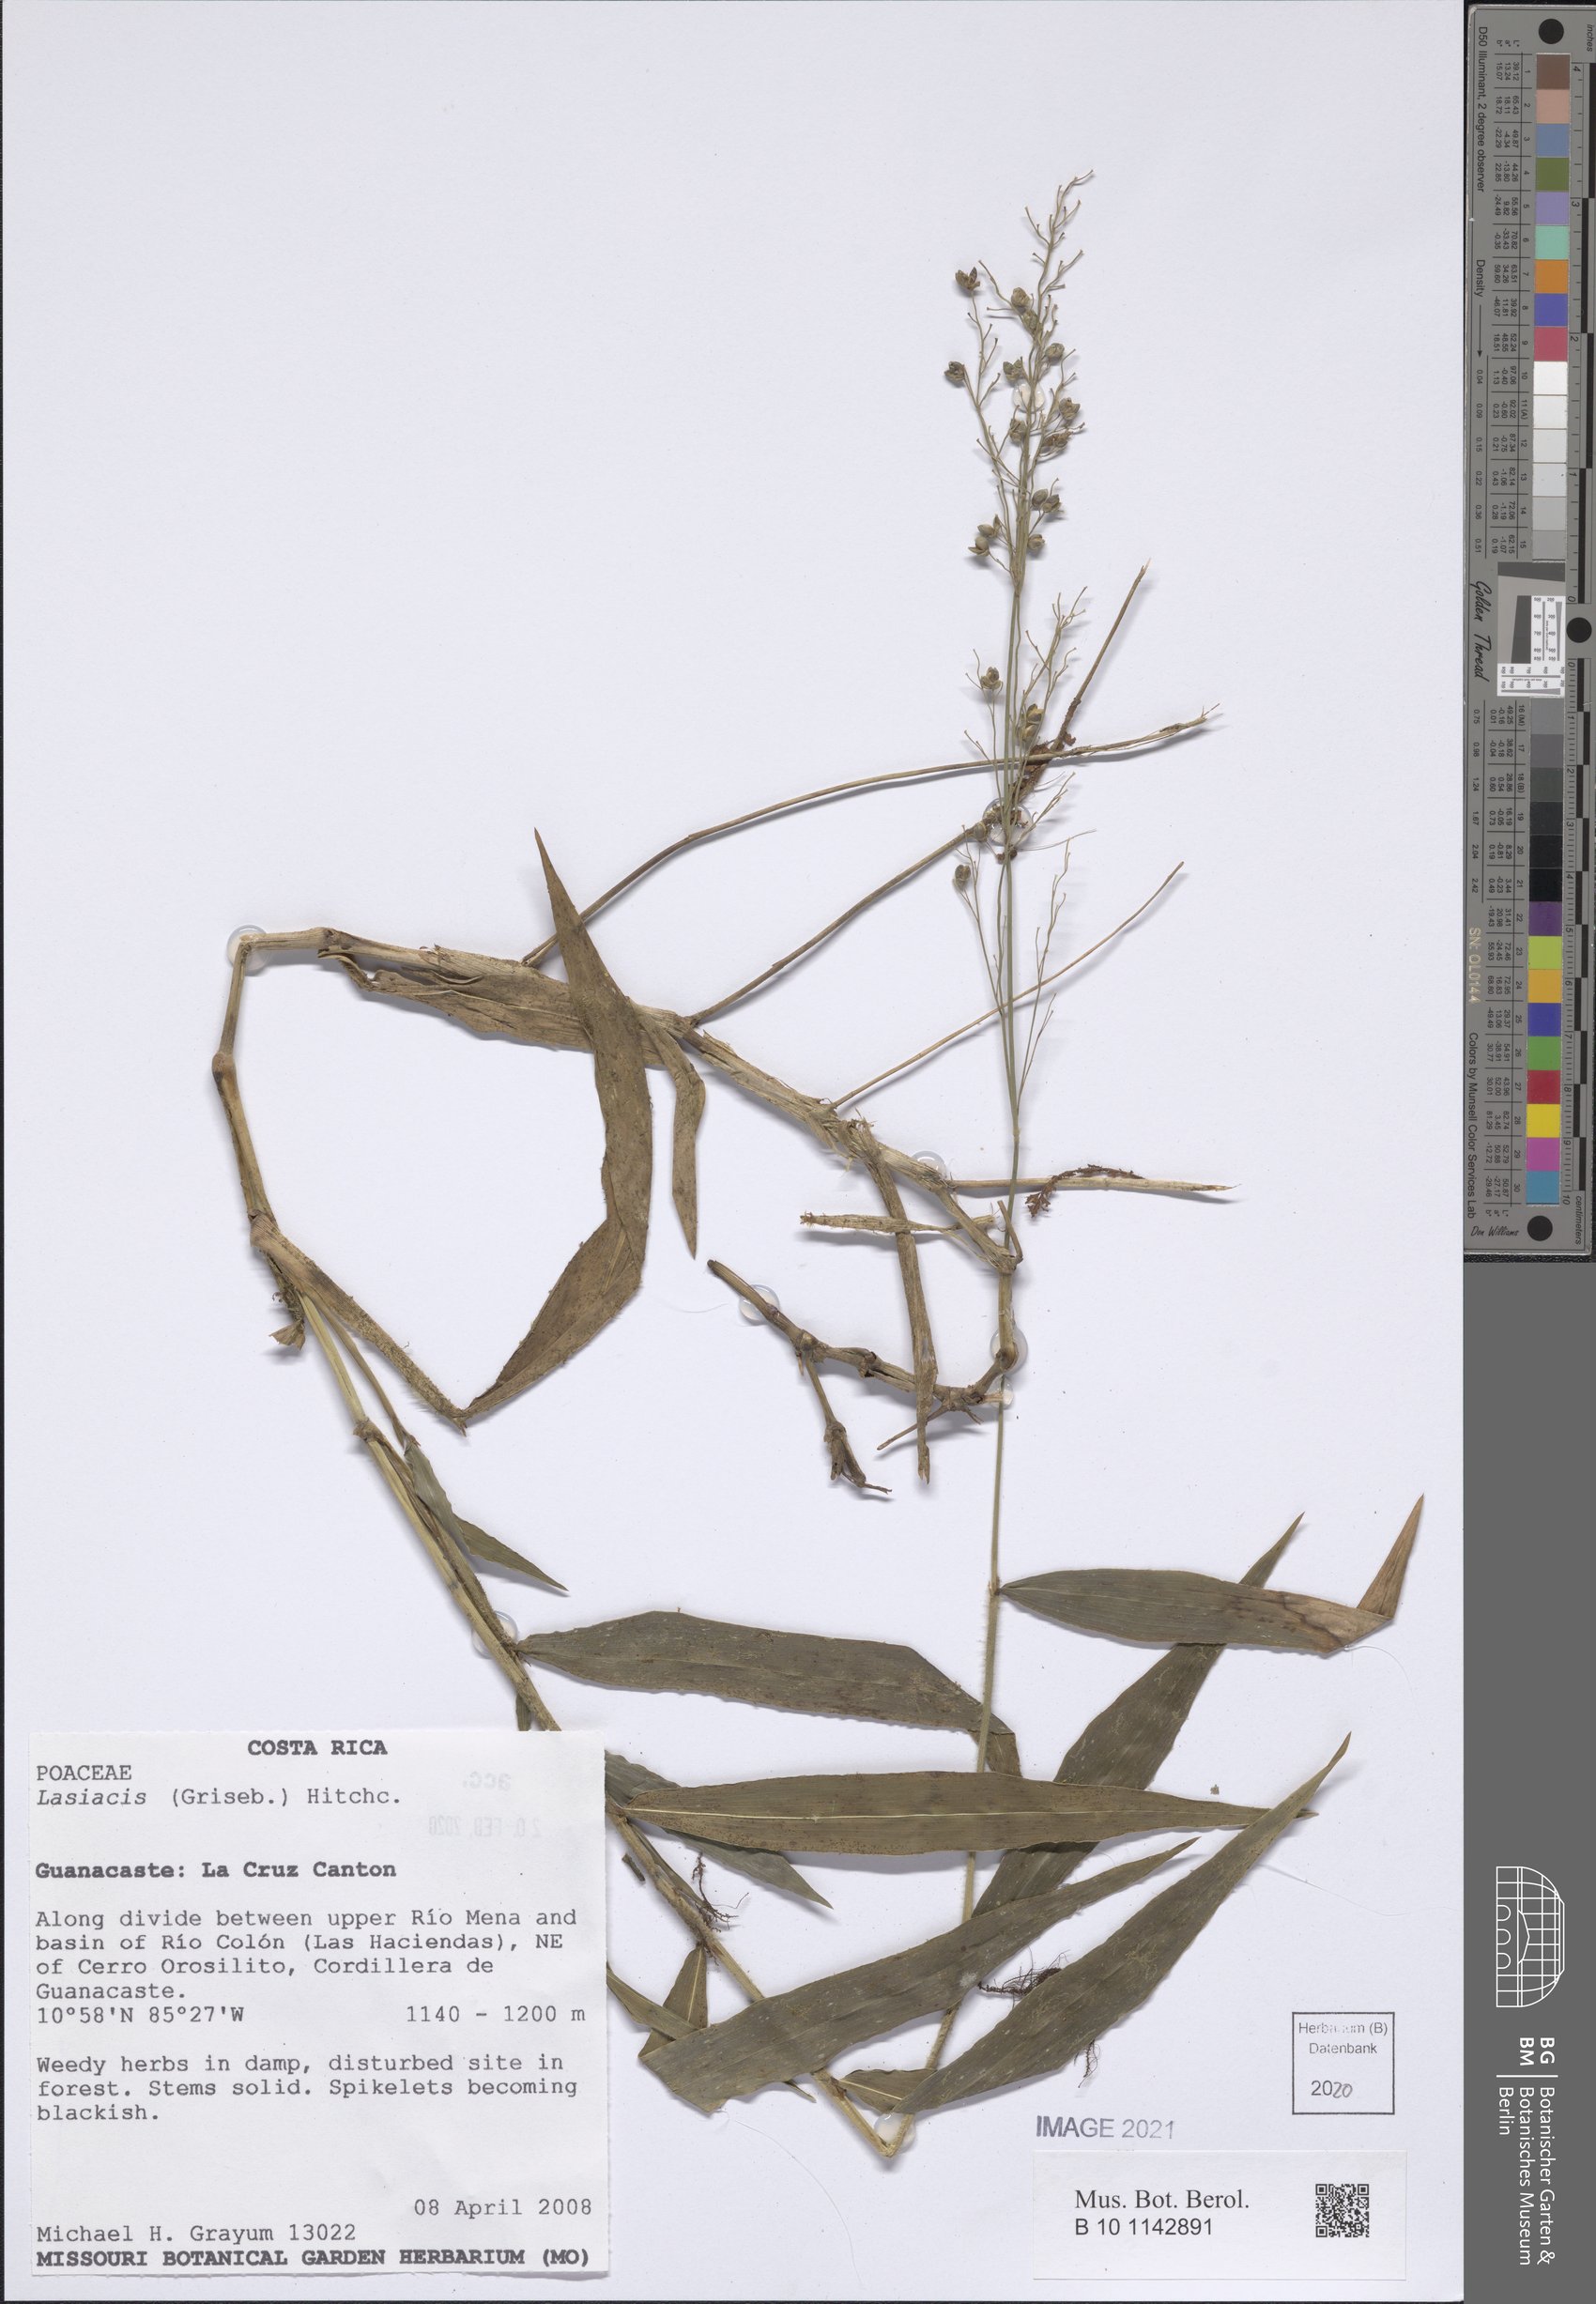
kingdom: Plantae
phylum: Tracheophyta
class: Liliopsida
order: Poales
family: Poaceae
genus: Lasiacis
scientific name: Lasiacis
